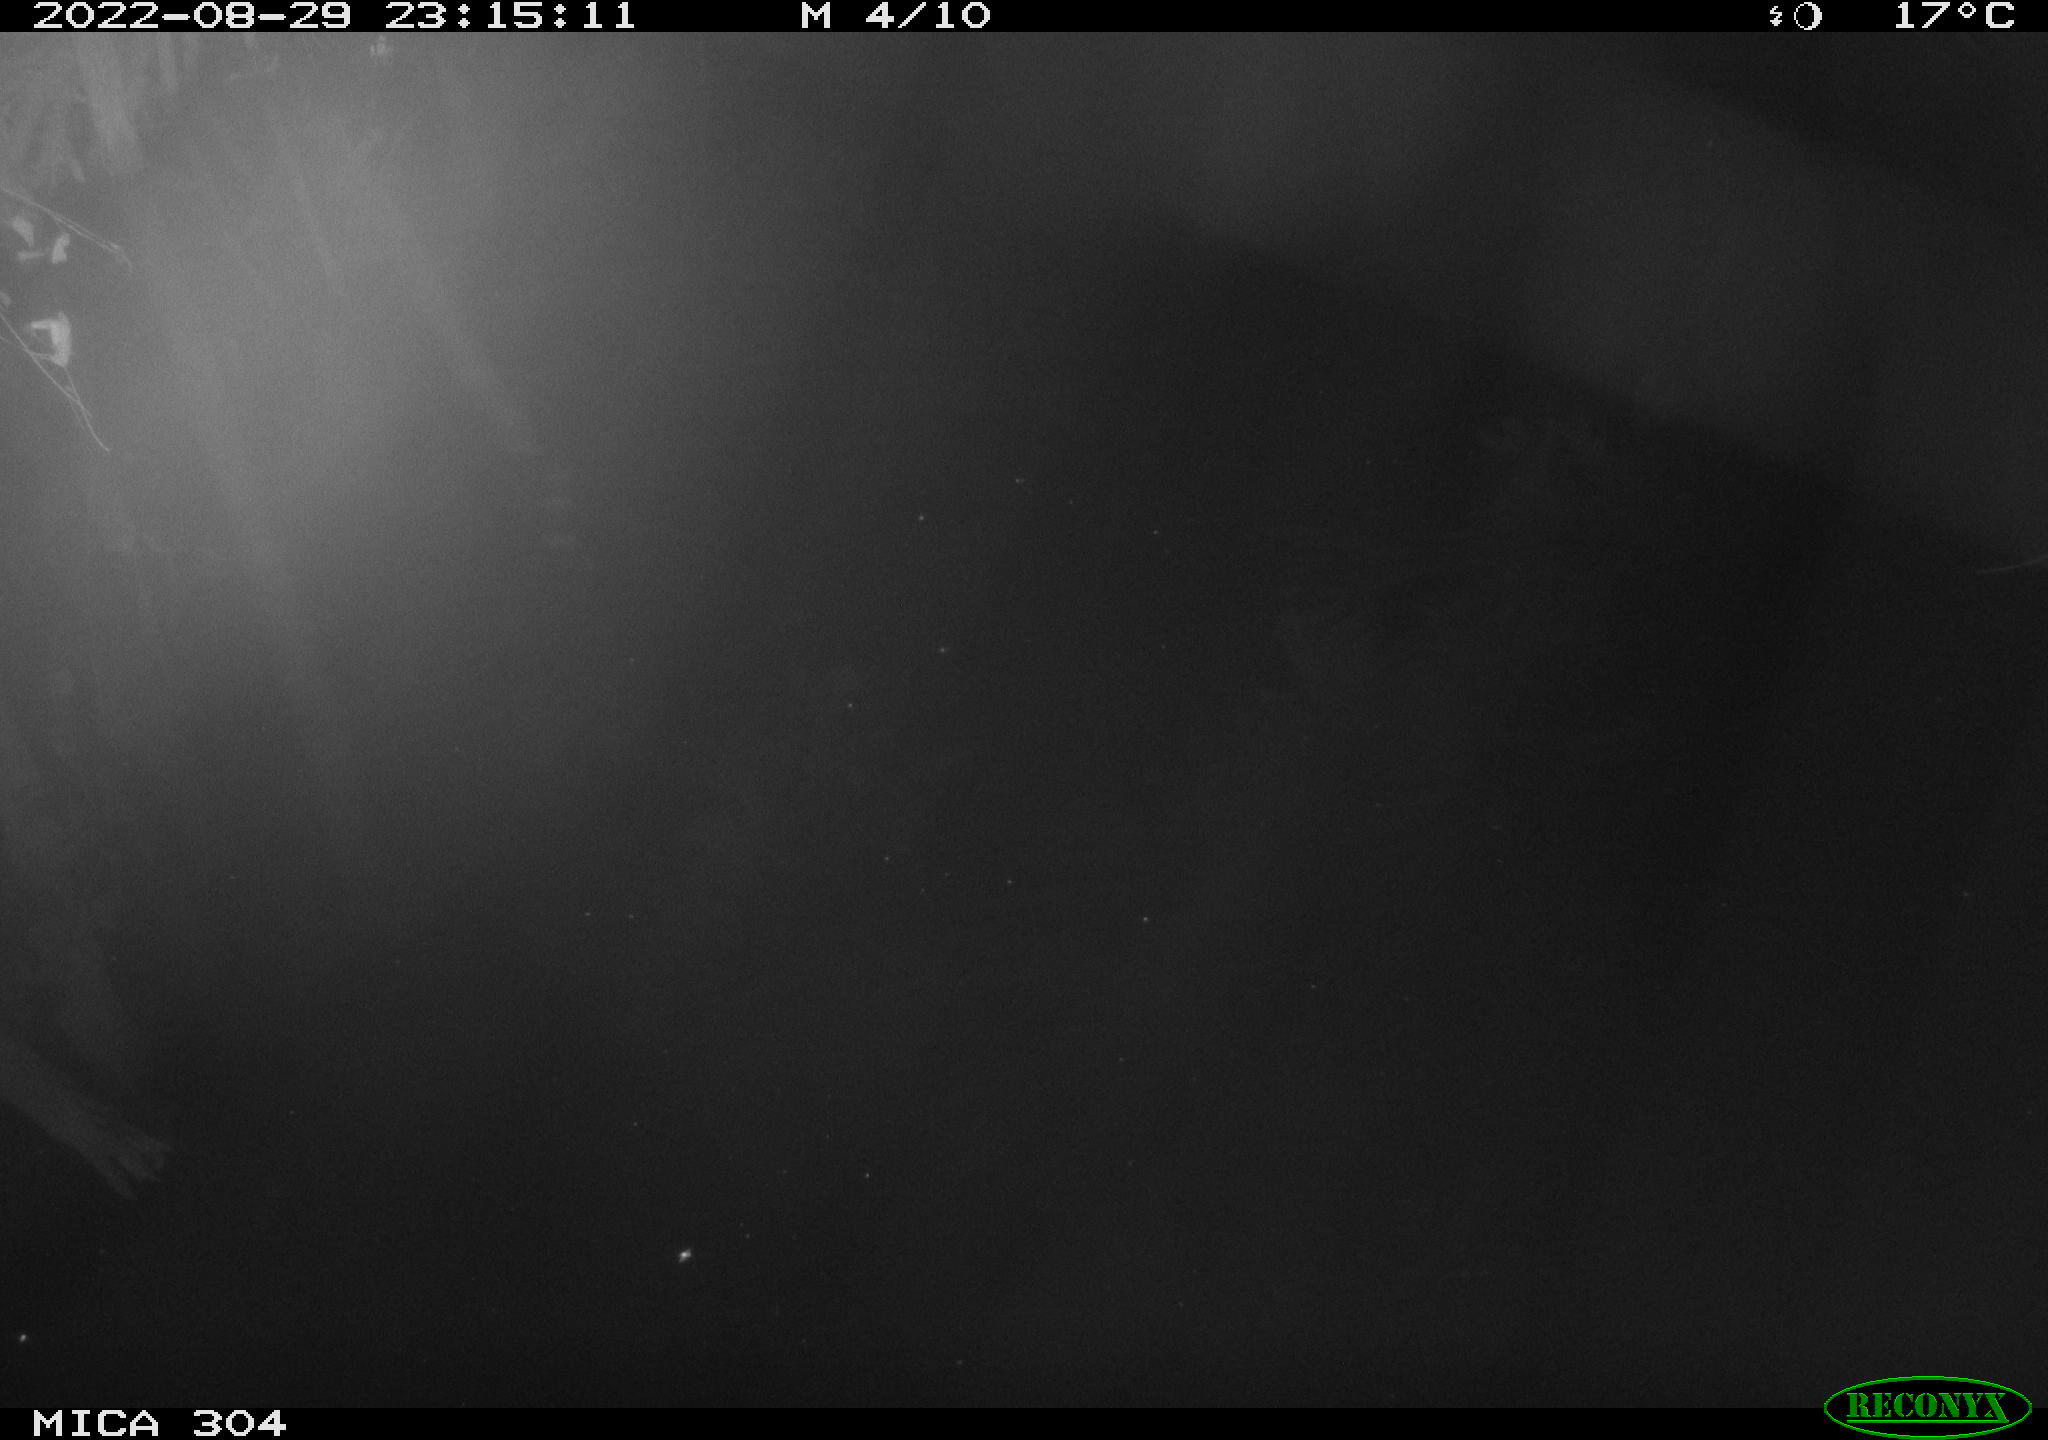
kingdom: Animalia
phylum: Chordata
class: Mammalia
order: Rodentia
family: Muridae
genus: Rattus
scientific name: Rattus norvegicus
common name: Brown rat
